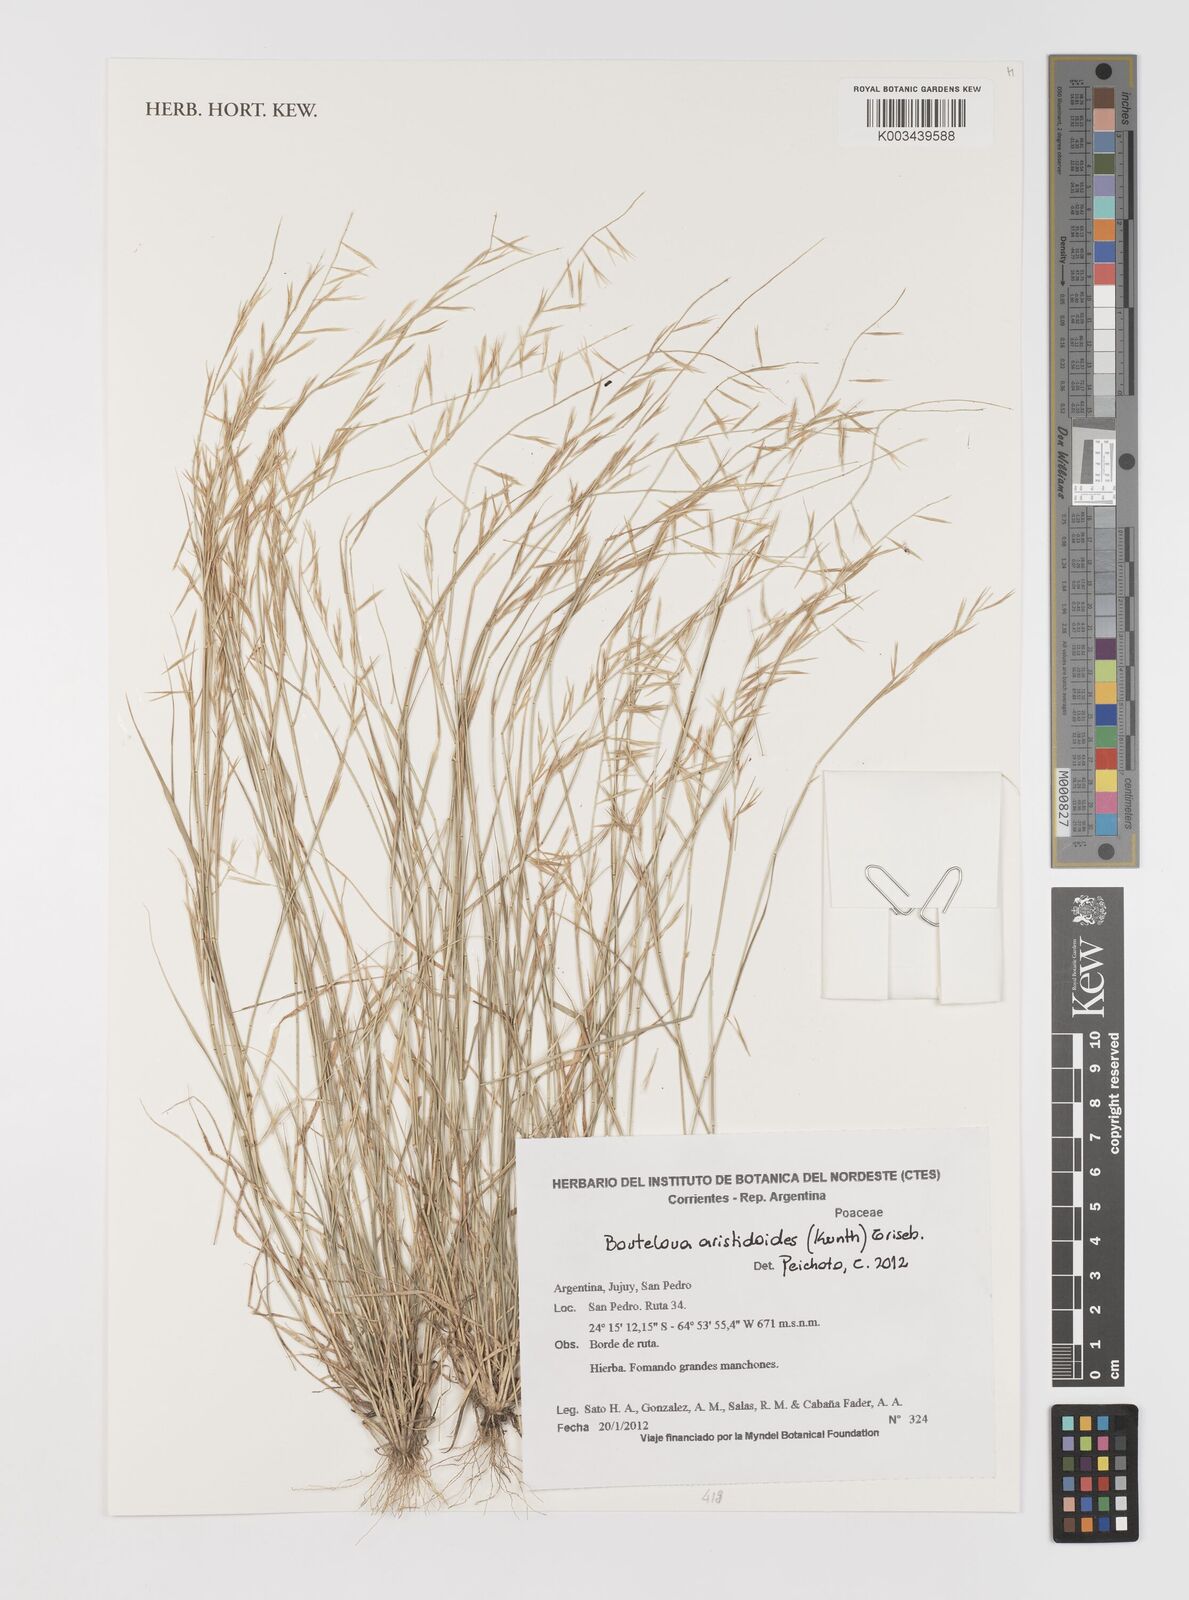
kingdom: Plantae
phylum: Tracheophyta
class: Liliopsida
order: Poales
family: Poaceae
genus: Bouteloua
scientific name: Bouteloua
